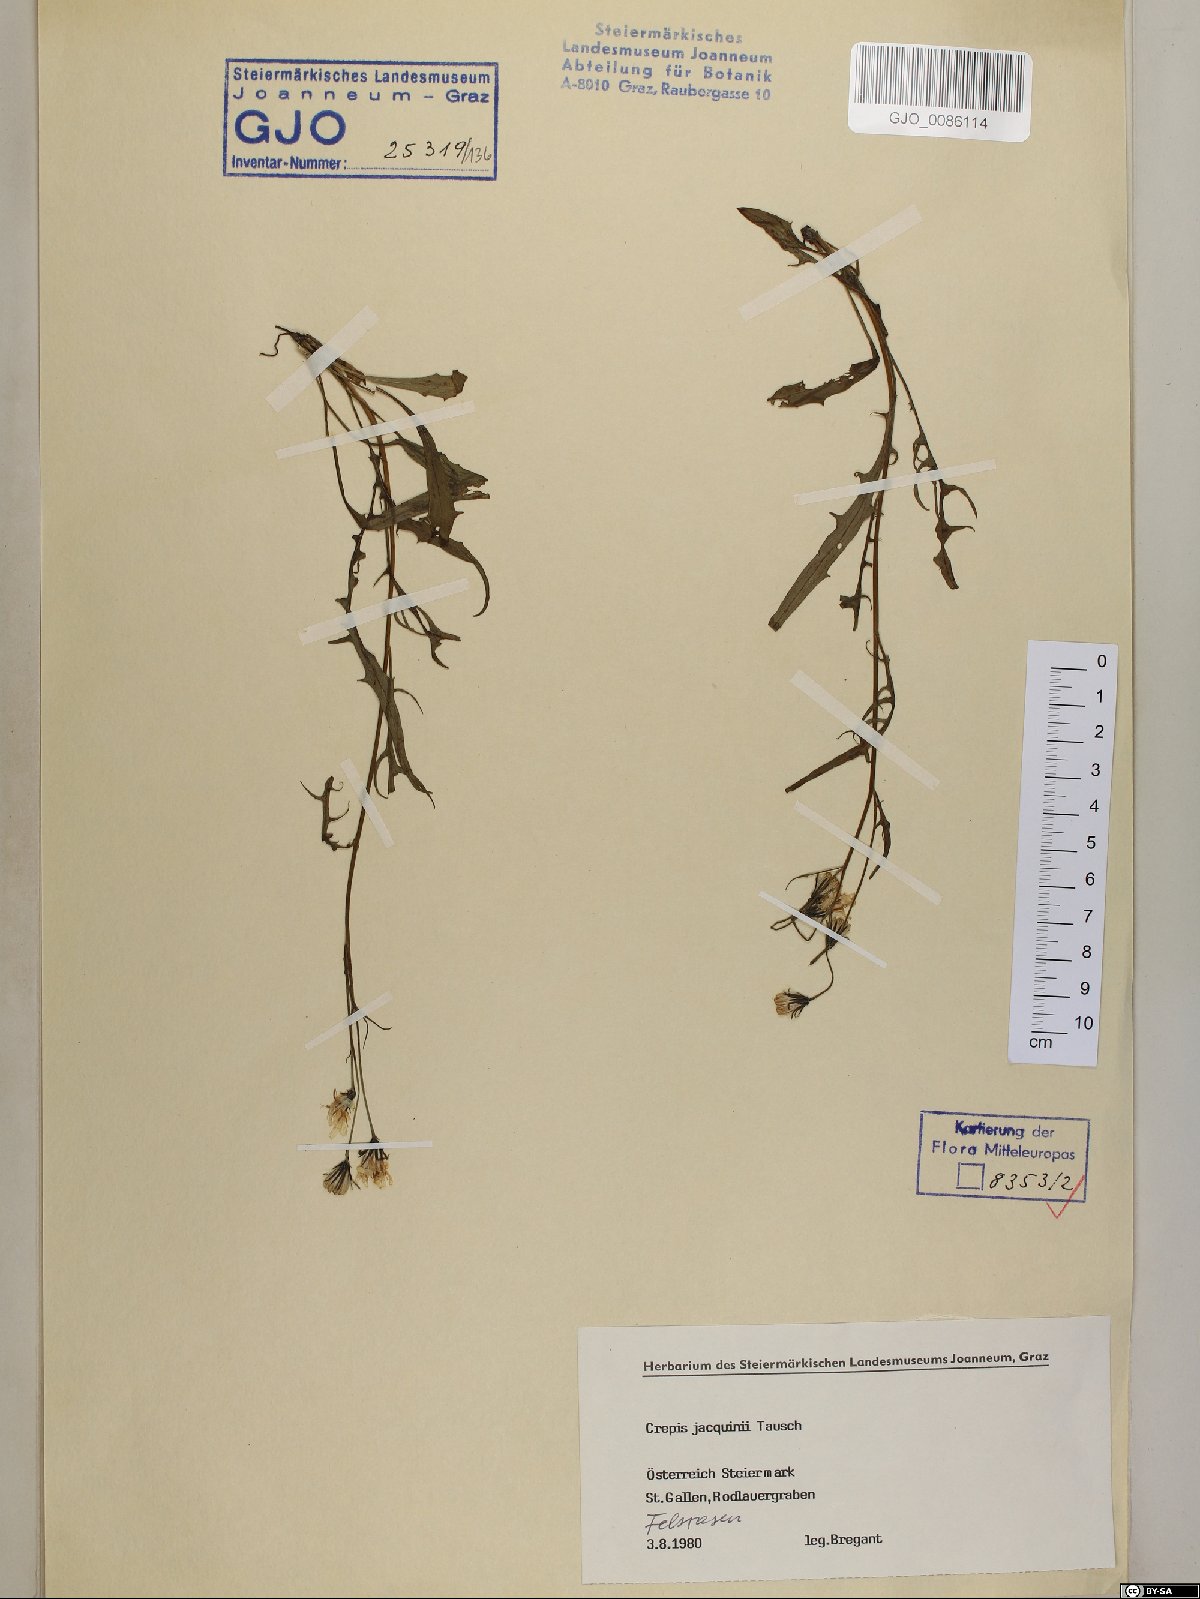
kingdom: Plantae
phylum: Tracheophyta
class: Magnoliopsida
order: Asterales
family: Asteraceae
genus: Crepis
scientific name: Crepis jacquinii
